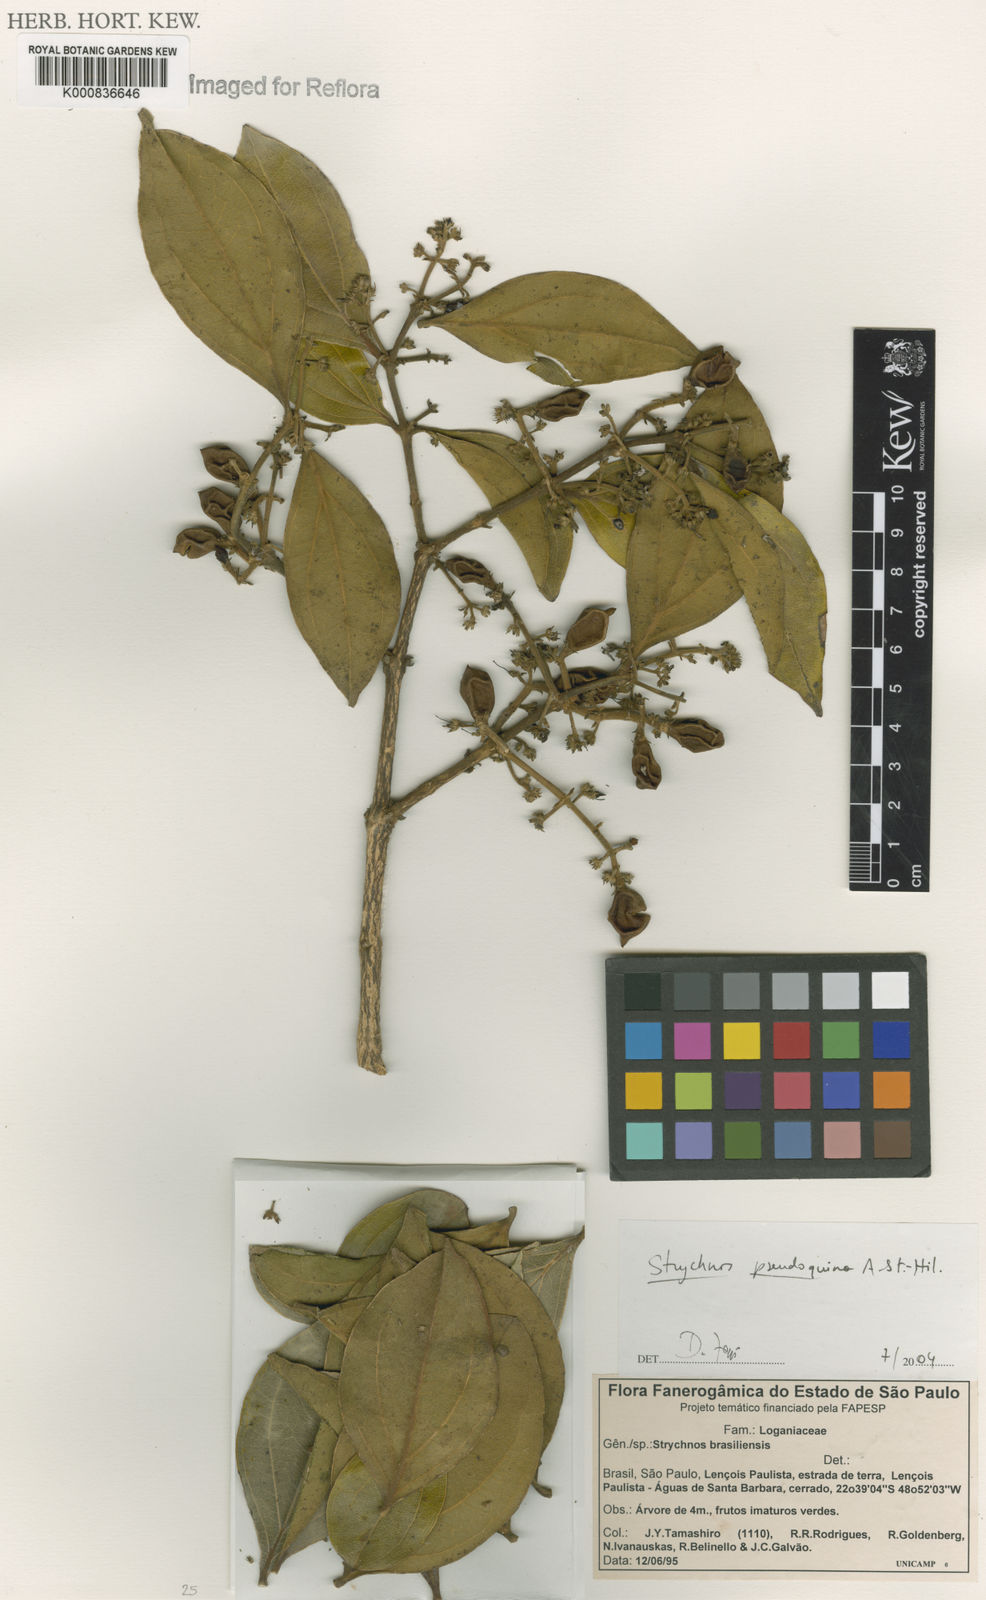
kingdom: Plantae
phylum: Tracheophyta
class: Magnoliopsida
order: Gentianales
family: Loganiaceae
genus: Strychnos
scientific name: Strychnos pseudoquina
